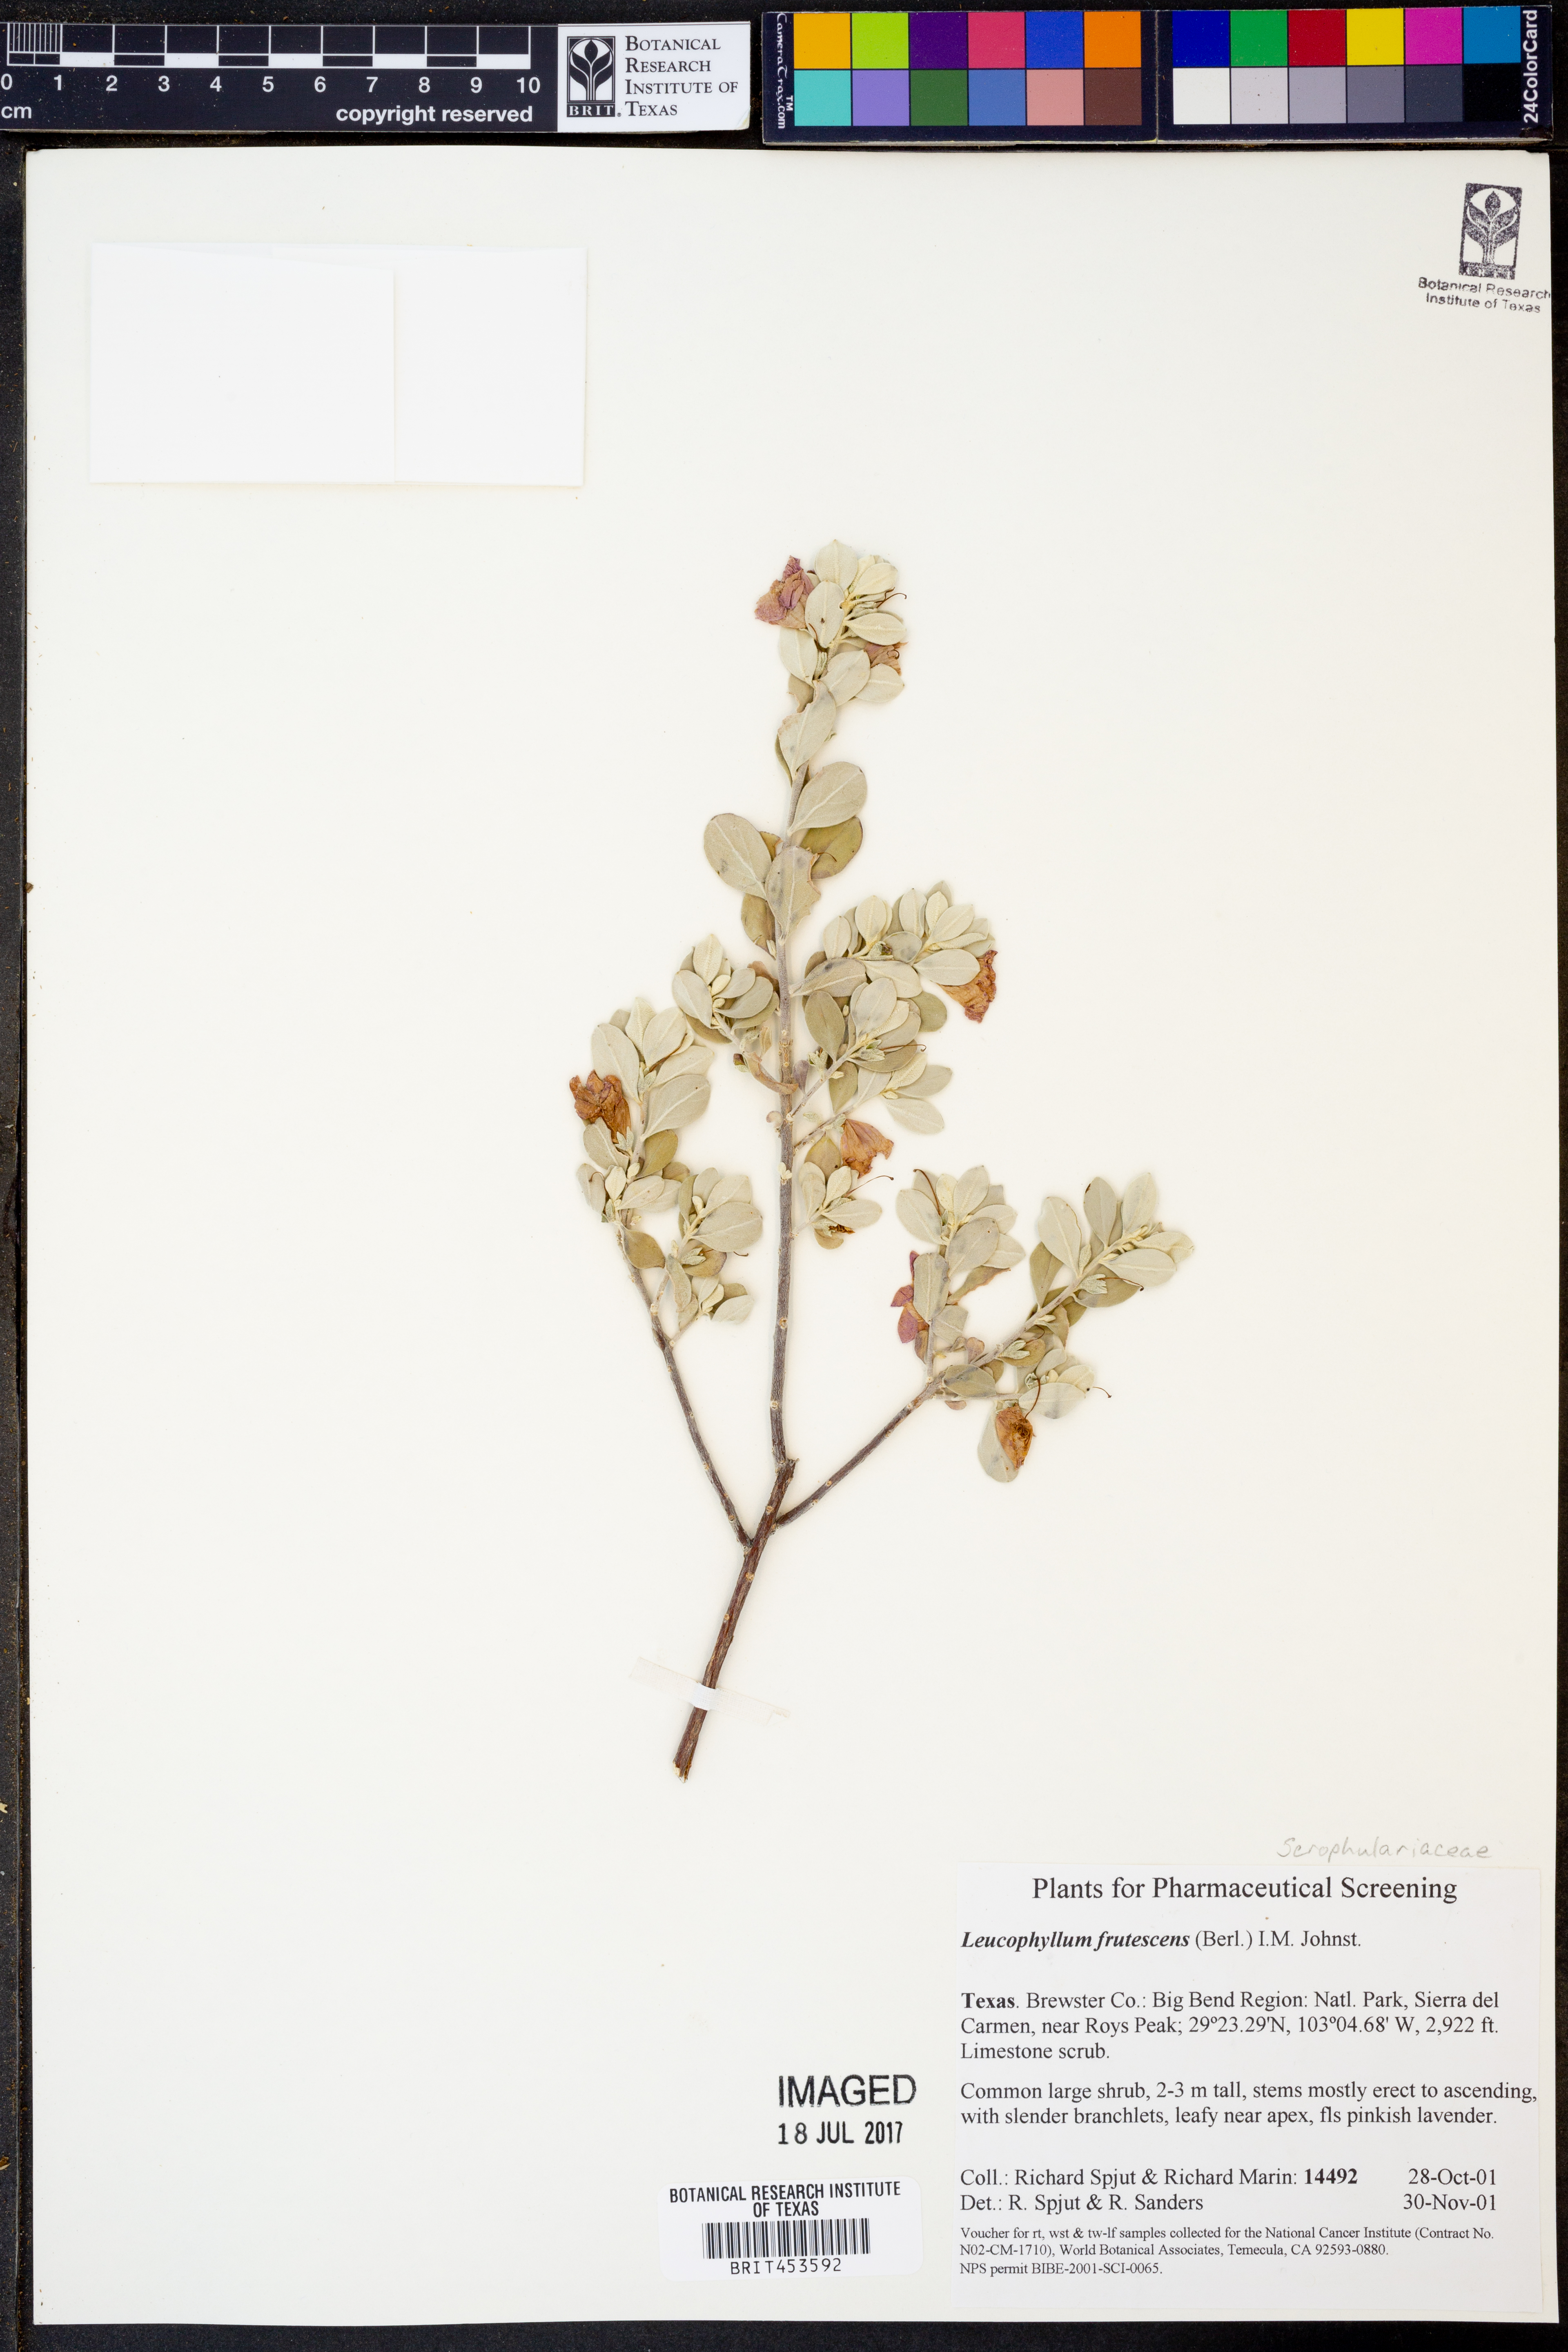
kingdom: Plantae
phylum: Tracheophyta
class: Magnoliopsida
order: Lamiales
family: Scrophulariaceae
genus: Leucophyllum
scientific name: Leucophyllum frutescens
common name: Texas silverleaf
